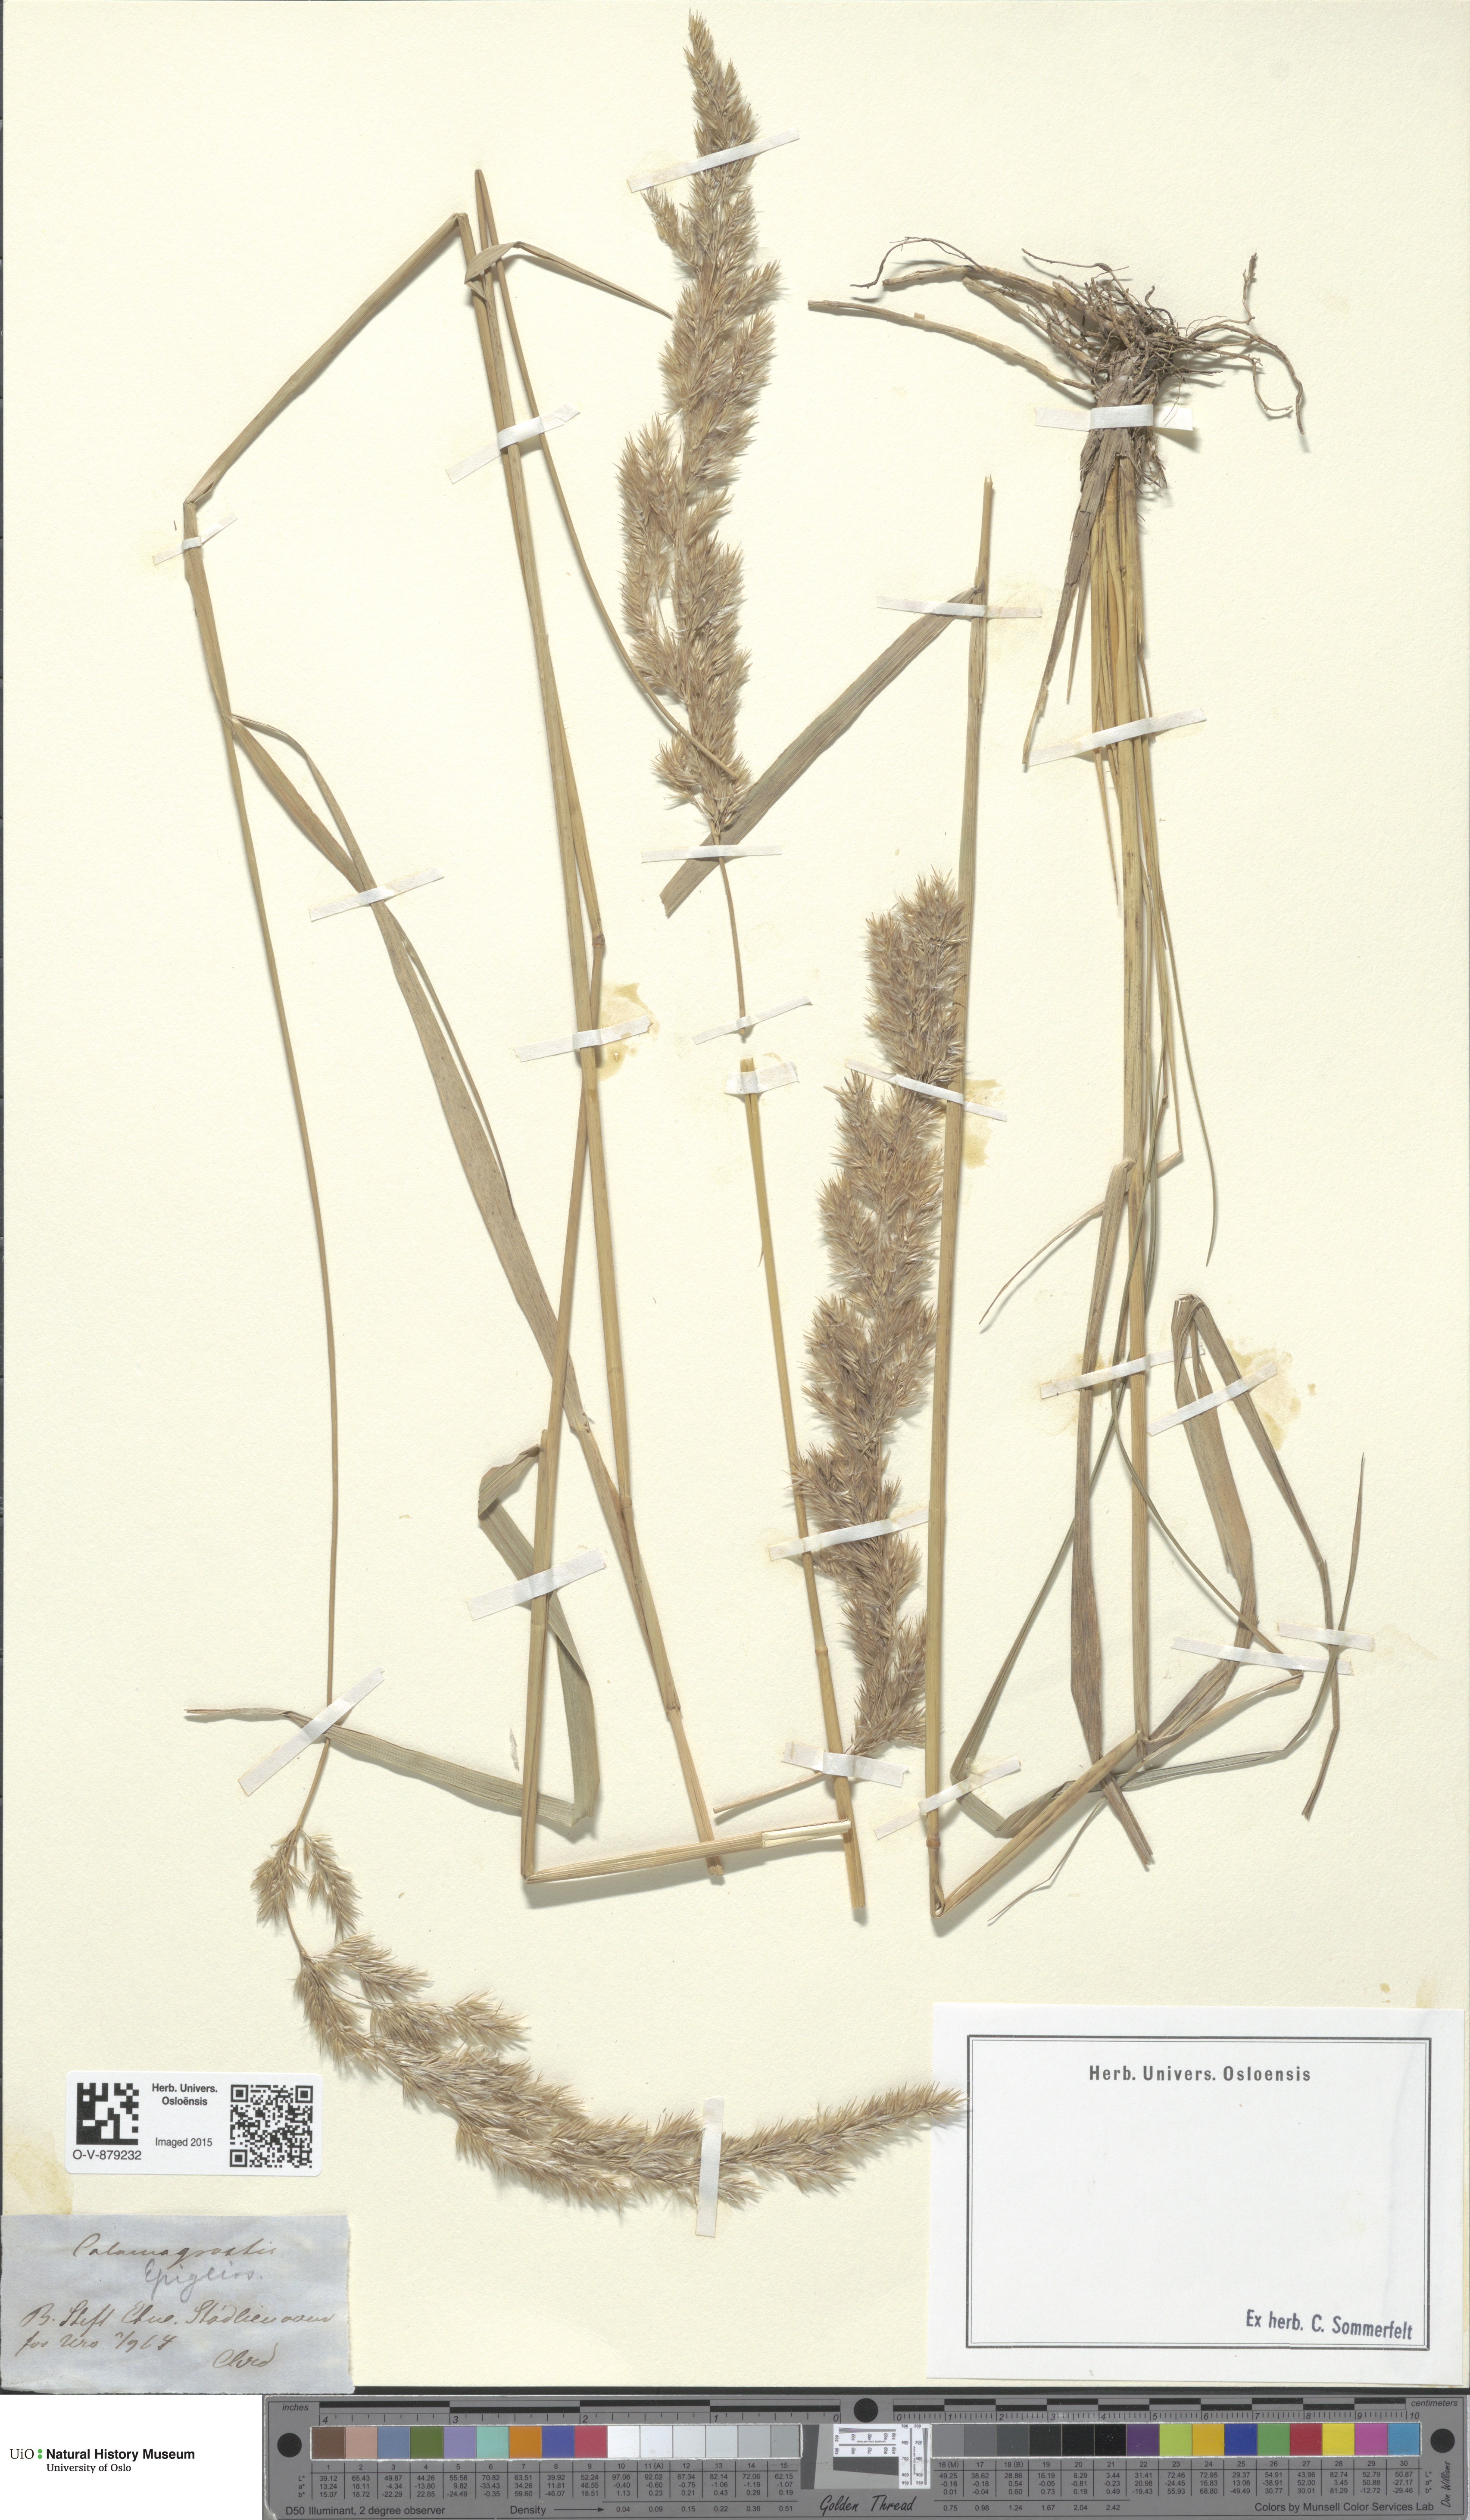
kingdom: Plantae
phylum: Tracheophyta
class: Liliopsida
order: Poales
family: Poaceae
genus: Calamagrostis
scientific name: Calamagrostis epigejos
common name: Wood small-reed
